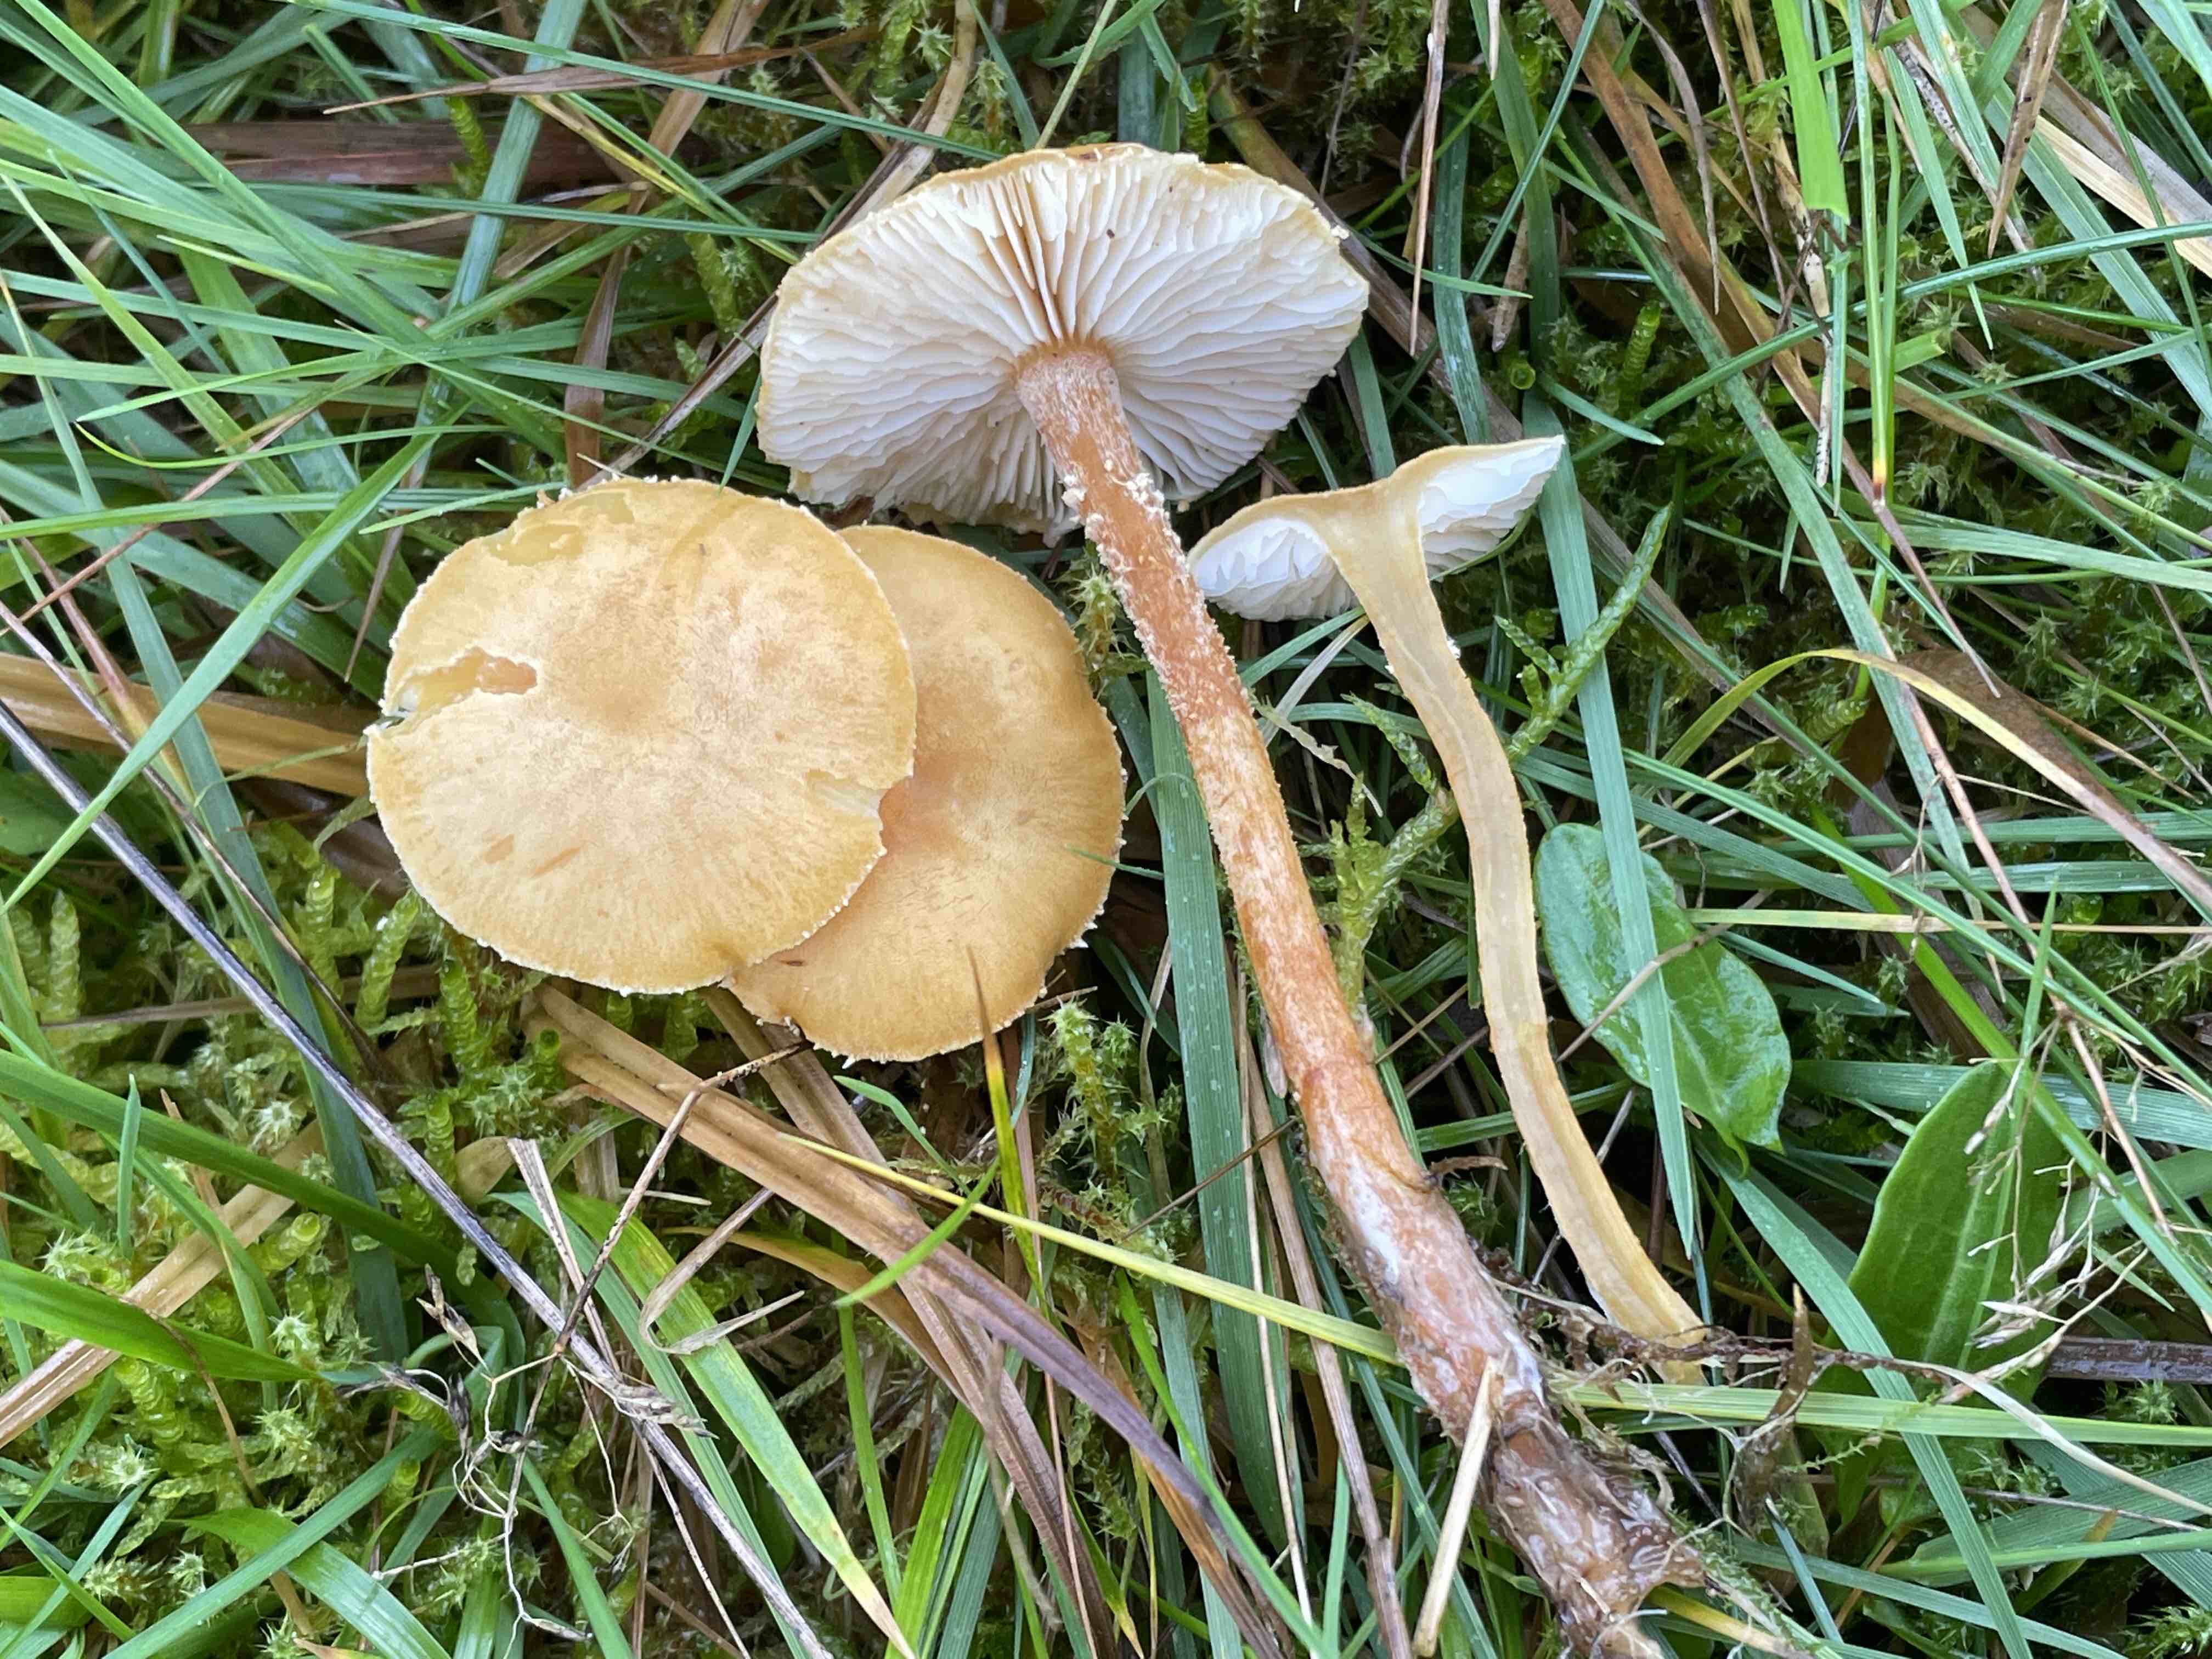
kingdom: Fungi
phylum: Basidiomycota
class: Agaricomycetes
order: Agaricales
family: Tricholomataceae
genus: Cystoderma
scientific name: Cystoderma amianthinum
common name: okkergul grynhat
